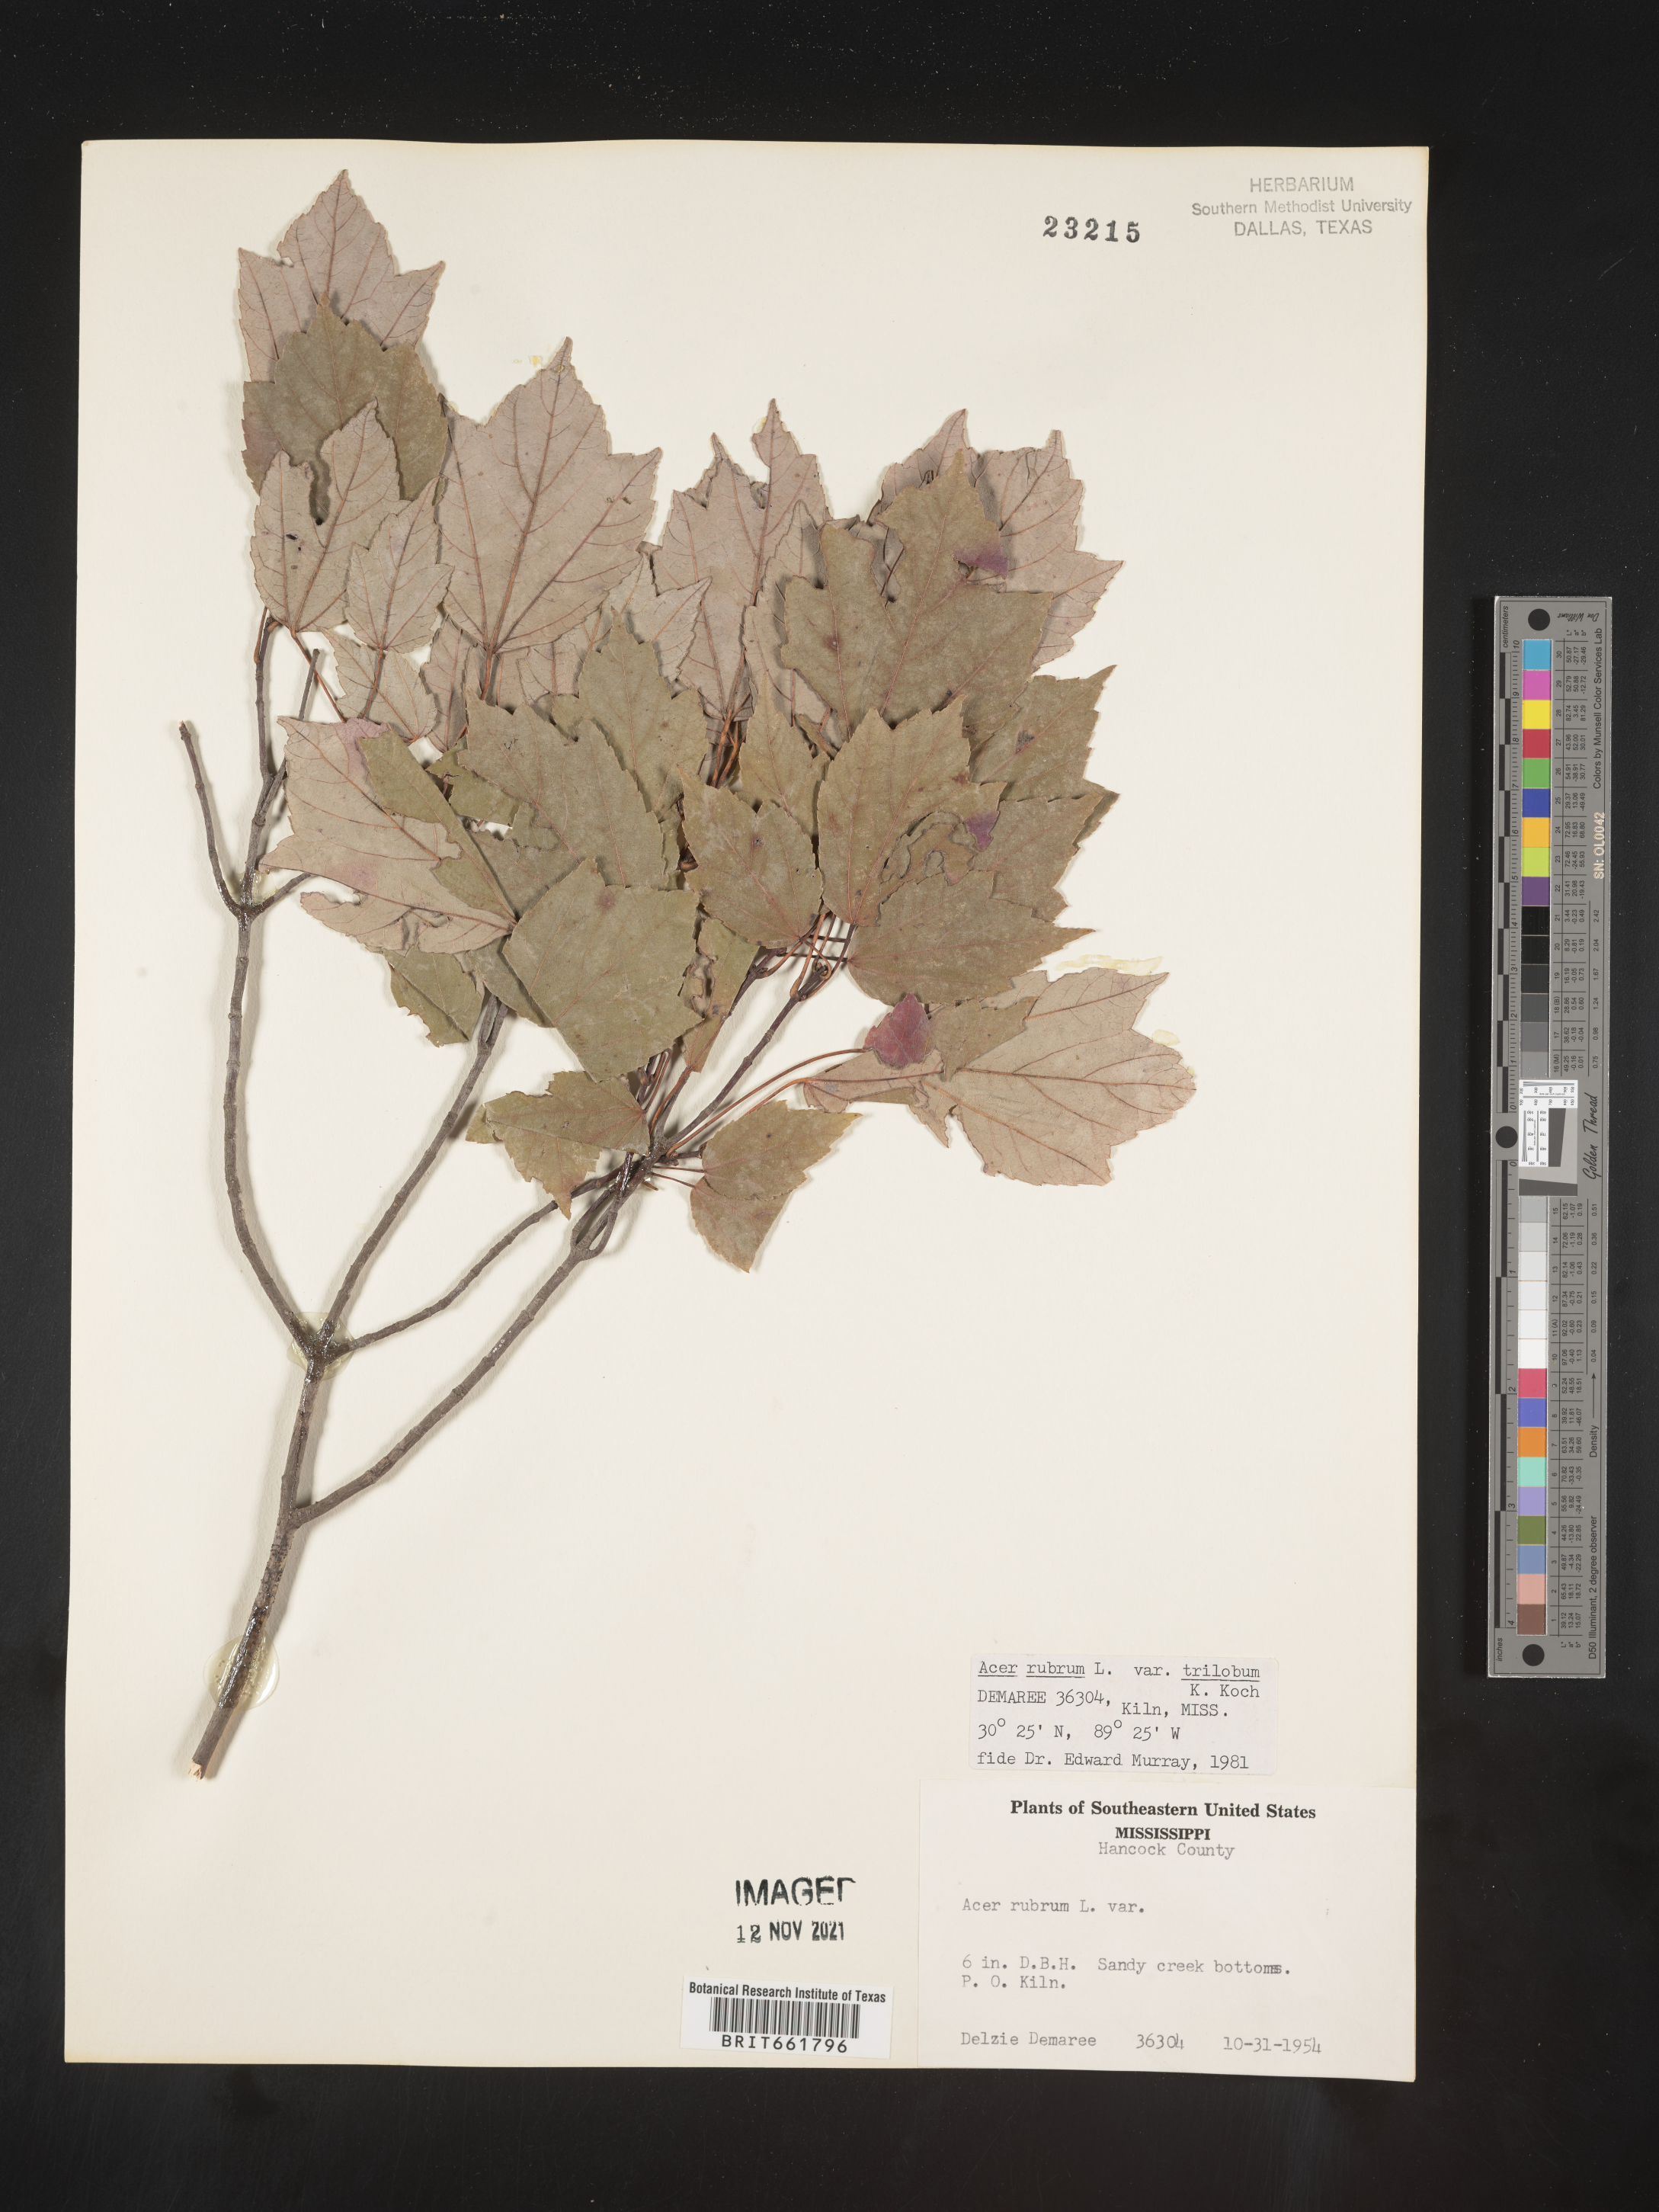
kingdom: Plantae
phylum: Tracheophyta
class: Magnoliopsida
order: Sapindales
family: Sapindaceae
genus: Acer
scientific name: Acer rubrum
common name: Red maple
